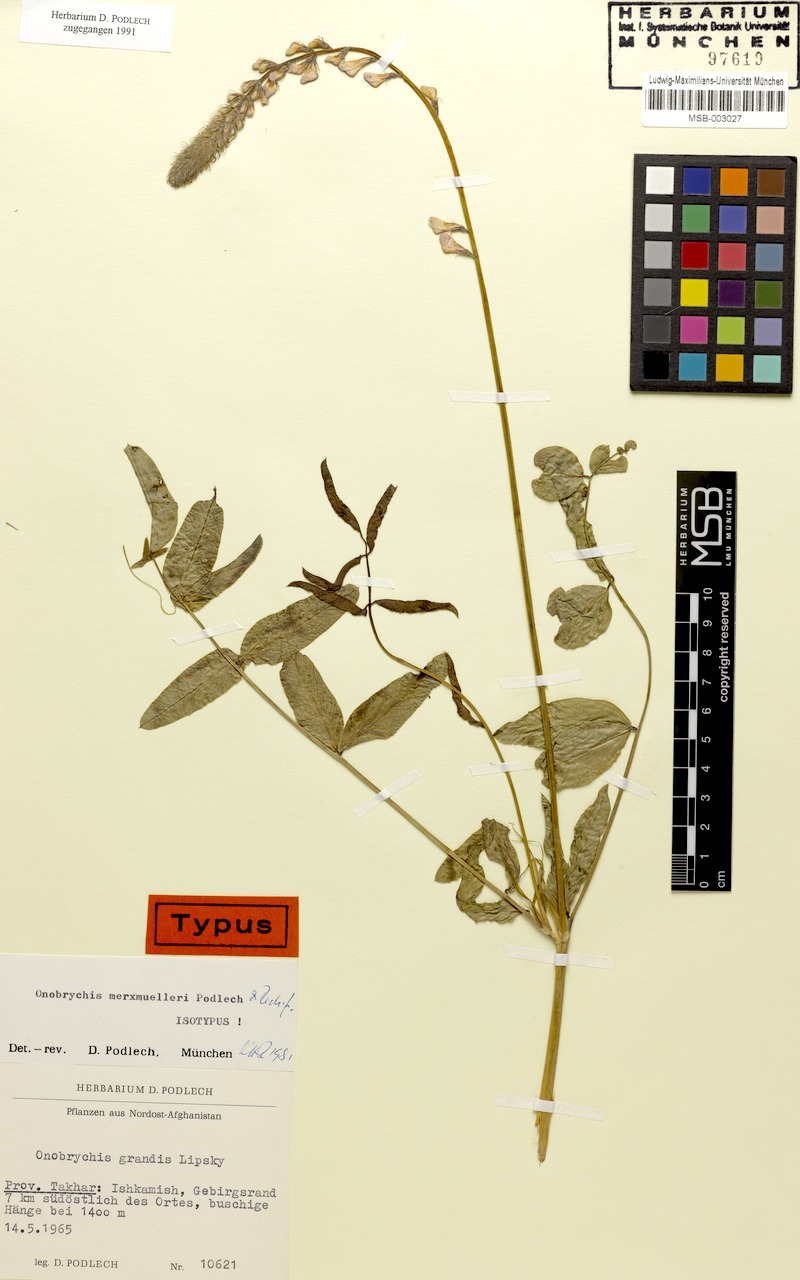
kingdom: Plantae
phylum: Tracheophyta
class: Magnoliopsida
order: Fabales
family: Fabaceae
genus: Onobrychis
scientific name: Onobrychis merxmuelleri
